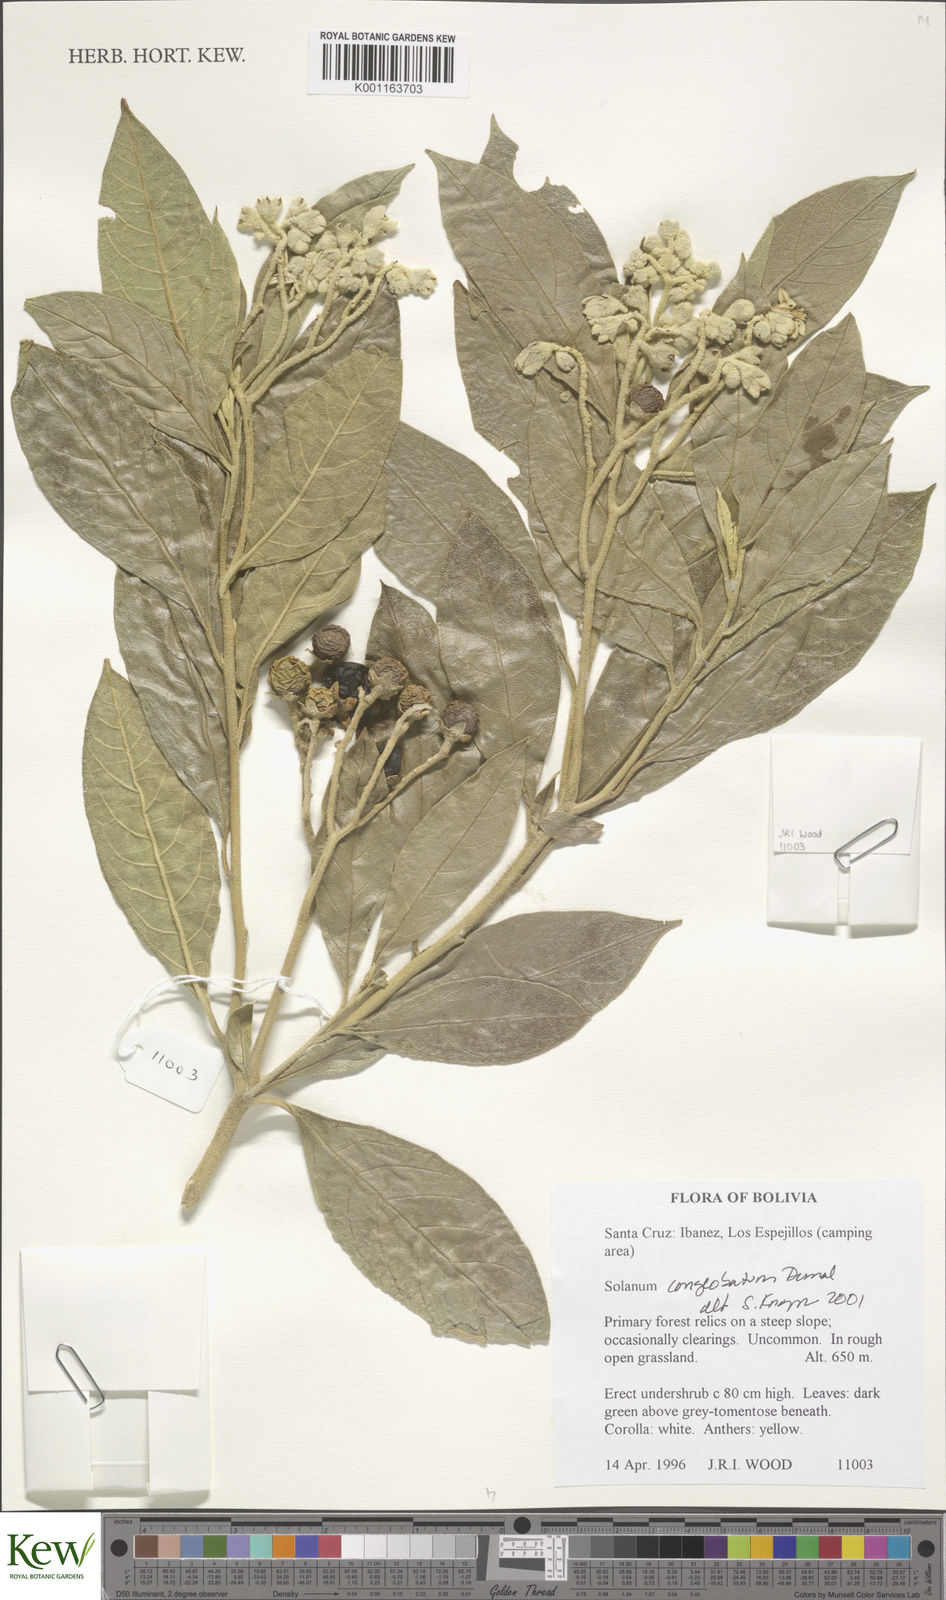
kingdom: Plantae
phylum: Tracheophyta
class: Magnoliopsida
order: Solanales
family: Solanaceae
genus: Solanum
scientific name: Solanum conglobatum
